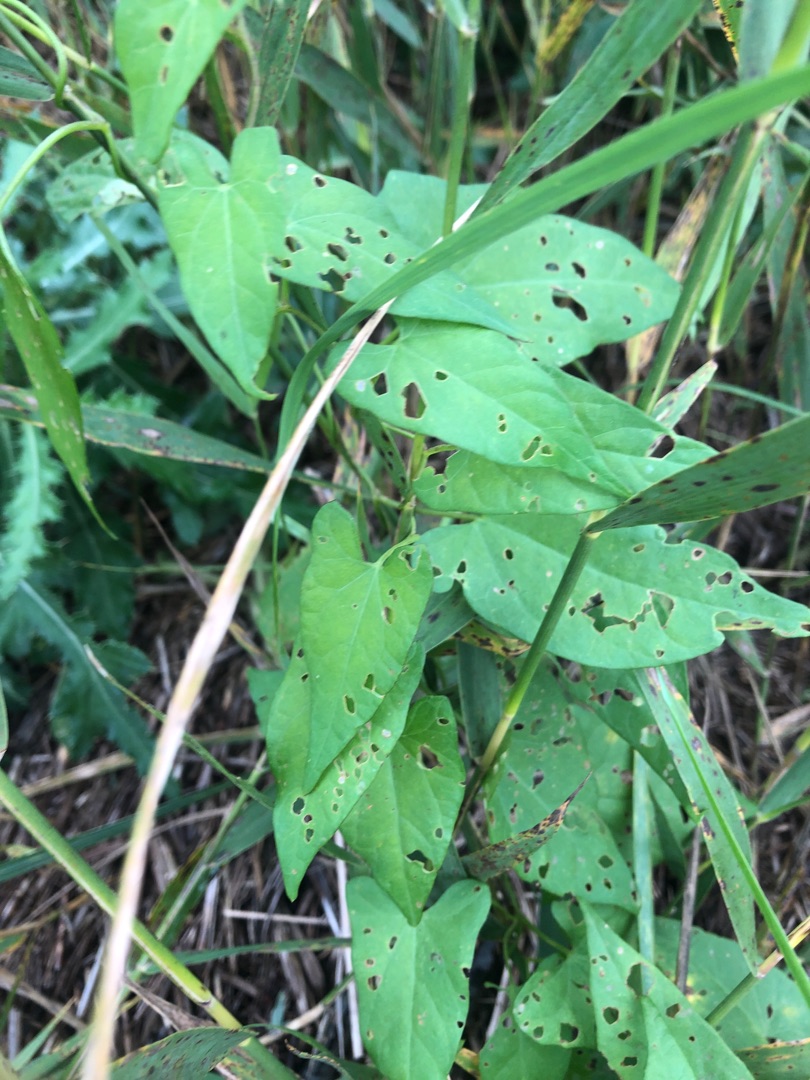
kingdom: Plantae
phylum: Tracheophyta
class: Magnoliopsida
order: Solanales
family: Convolvulaceae
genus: Convolvulus
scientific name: Convolvulus arvensis
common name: Ager-snerle
